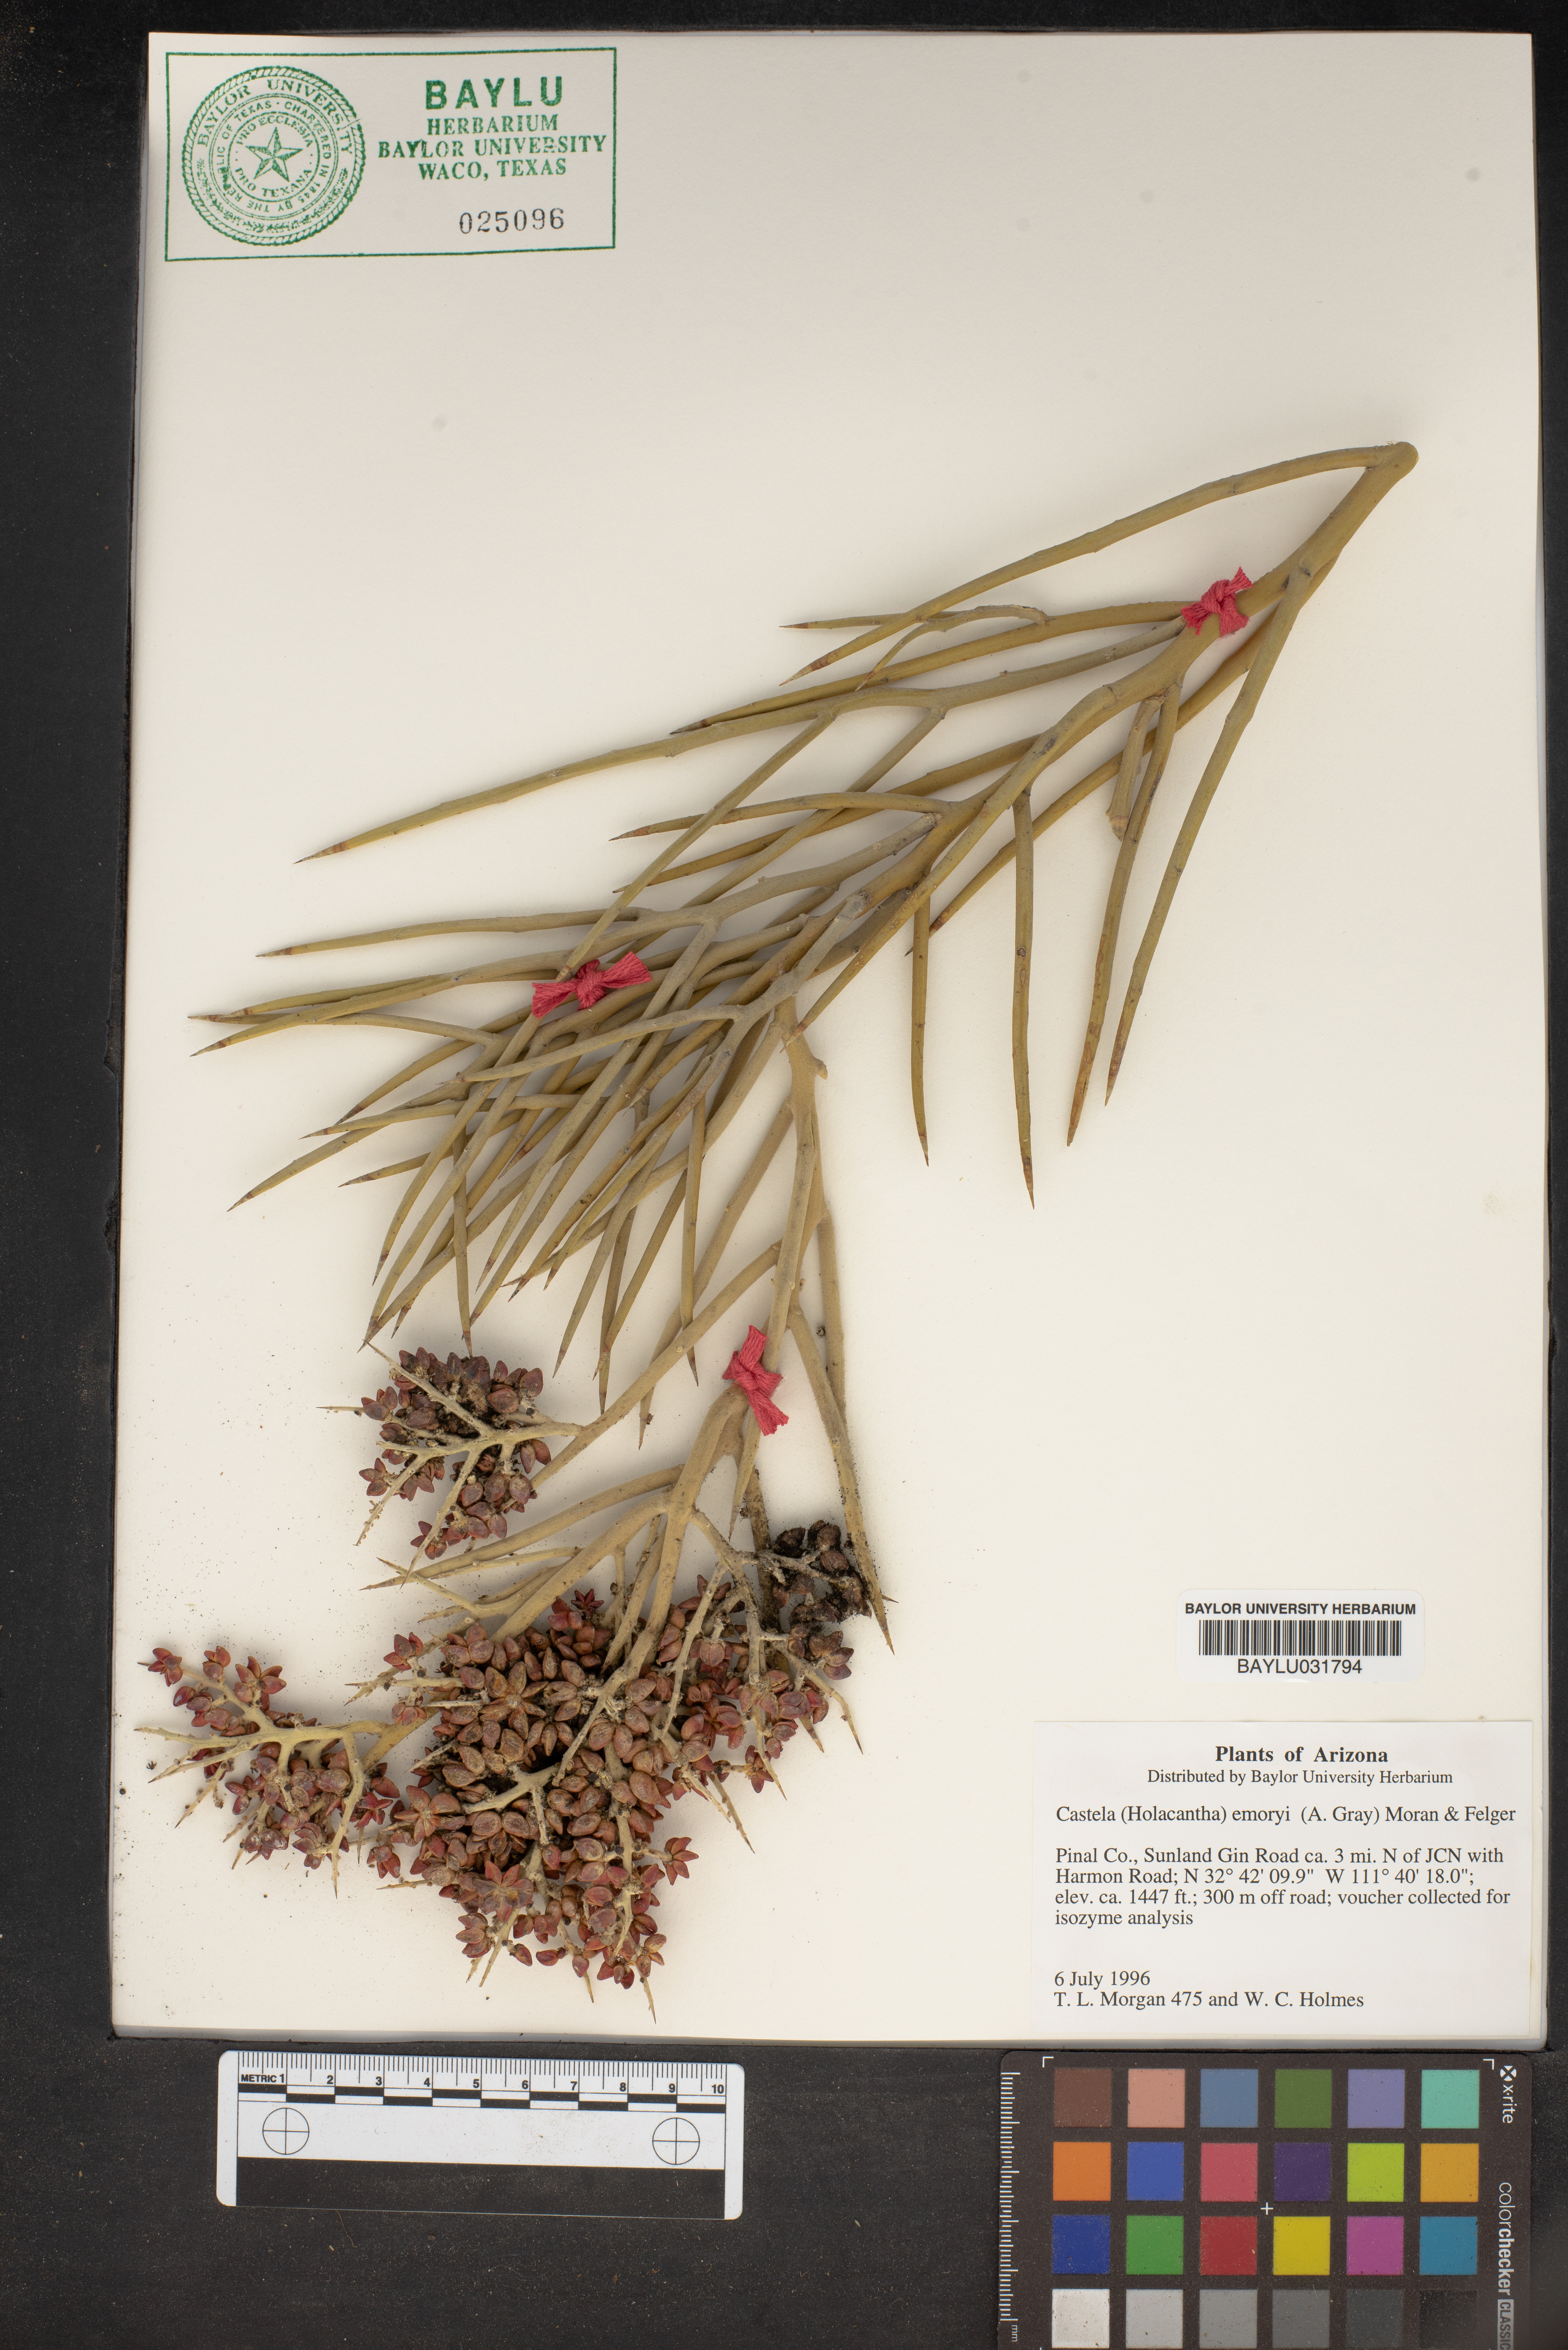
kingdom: Plantae
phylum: Tracheophyta
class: Magnoliopsida
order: Sapindales
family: Simaroubaceae
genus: Holacantha
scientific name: Holacantha emoryi
